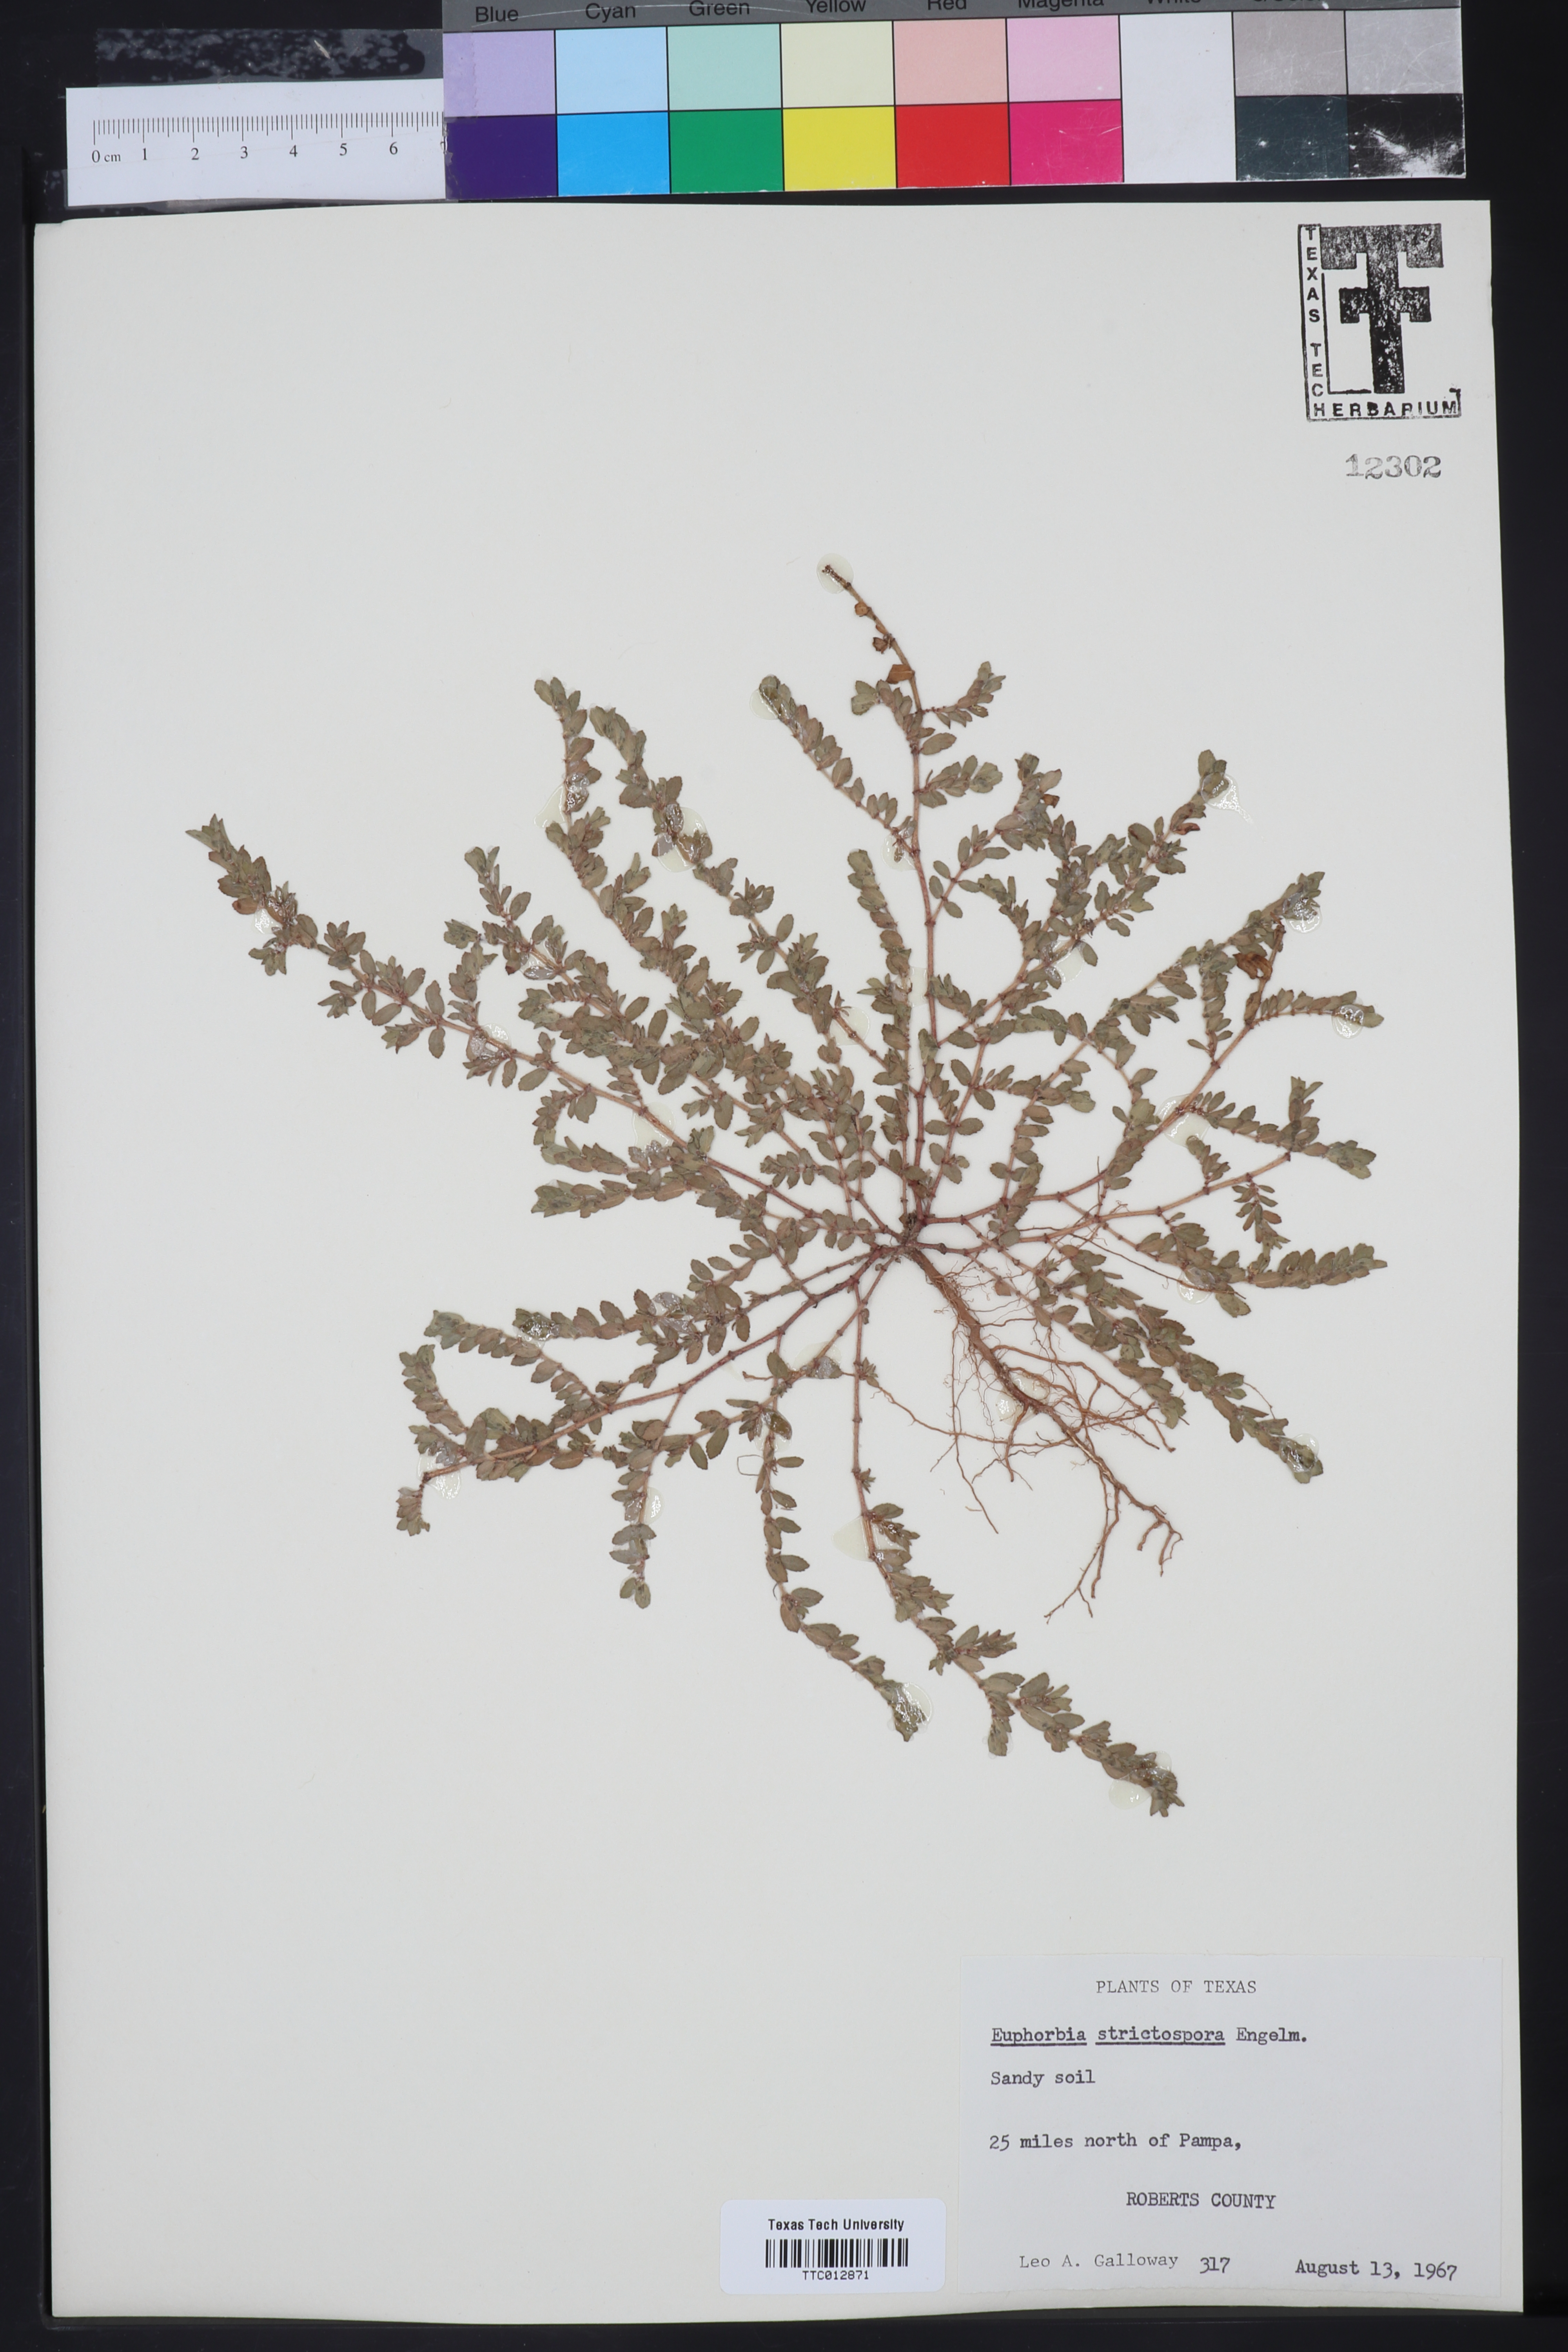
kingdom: Plantae
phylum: Tracheophyta
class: Magnoliopsida
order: Malpighiales
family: Euphorbiaceae
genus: Euphorbia
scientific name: Euphorbia
